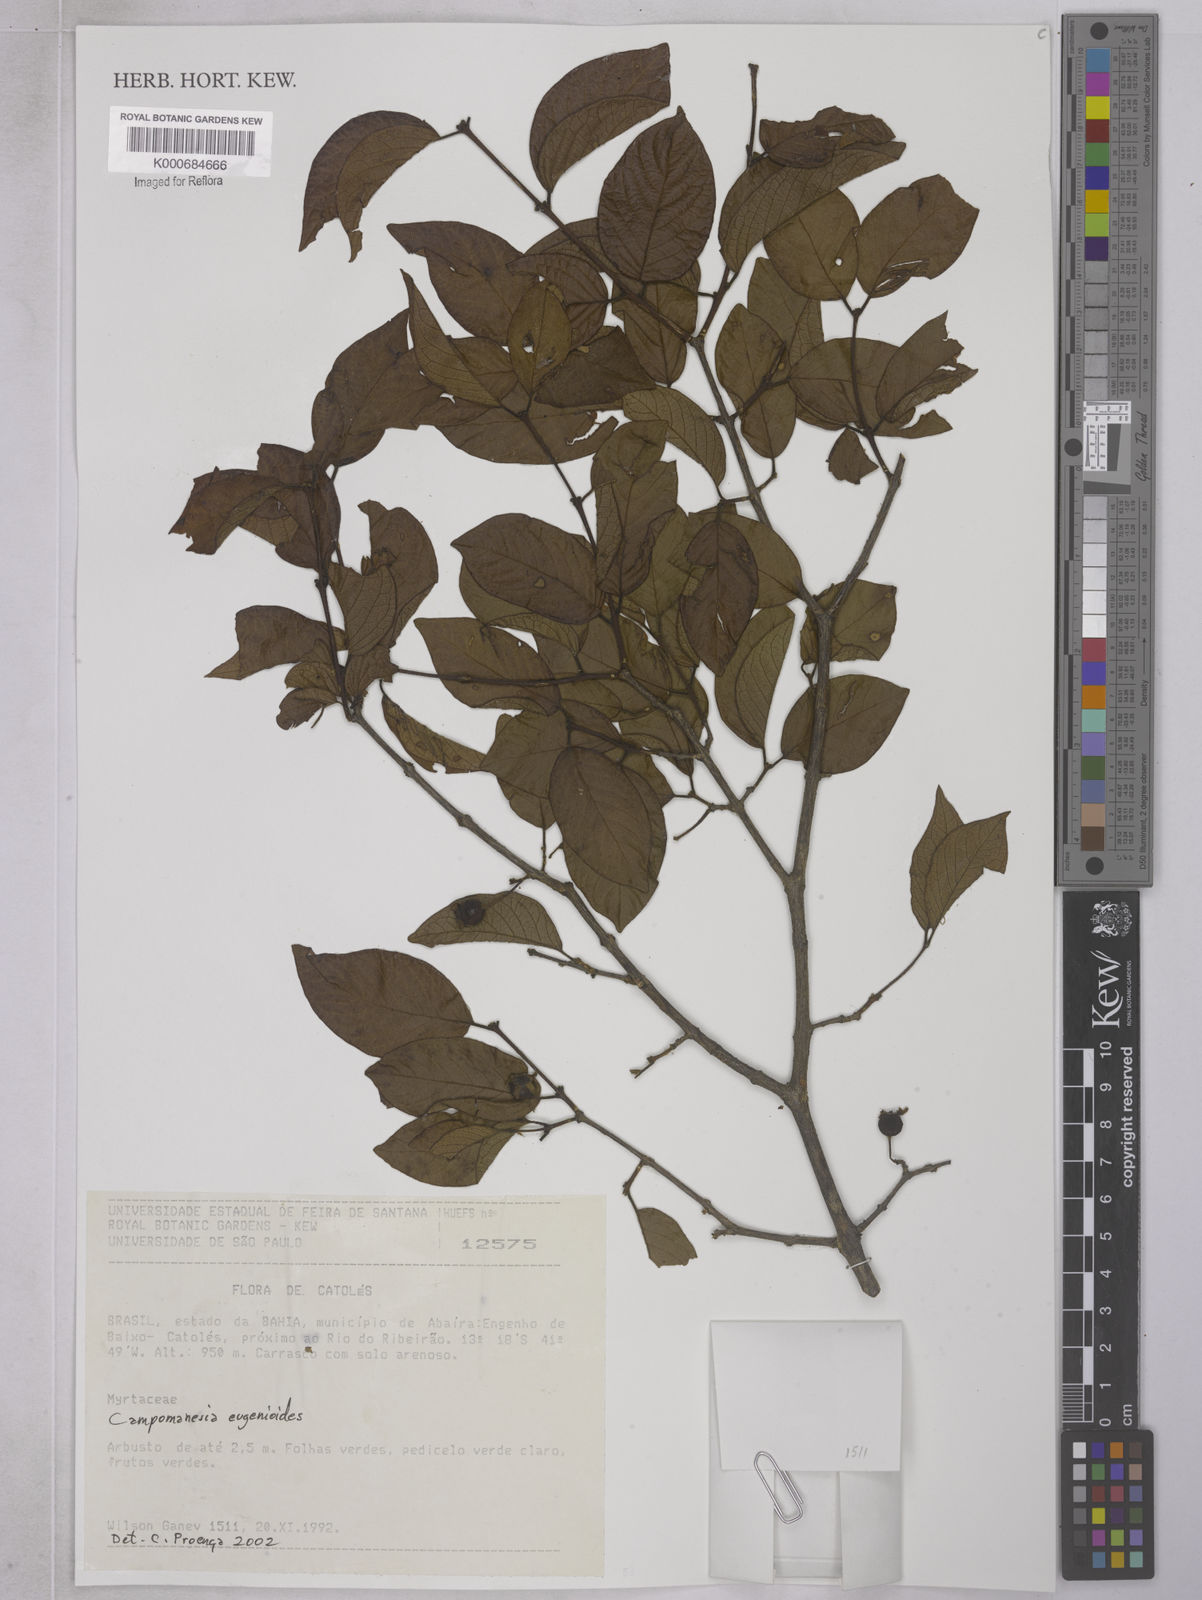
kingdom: Plantae
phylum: Tracheophyta
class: Magnoliopsida
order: Myrtales
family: Myrtaceae
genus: Campomanesia
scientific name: Campomanesia eugenioides
